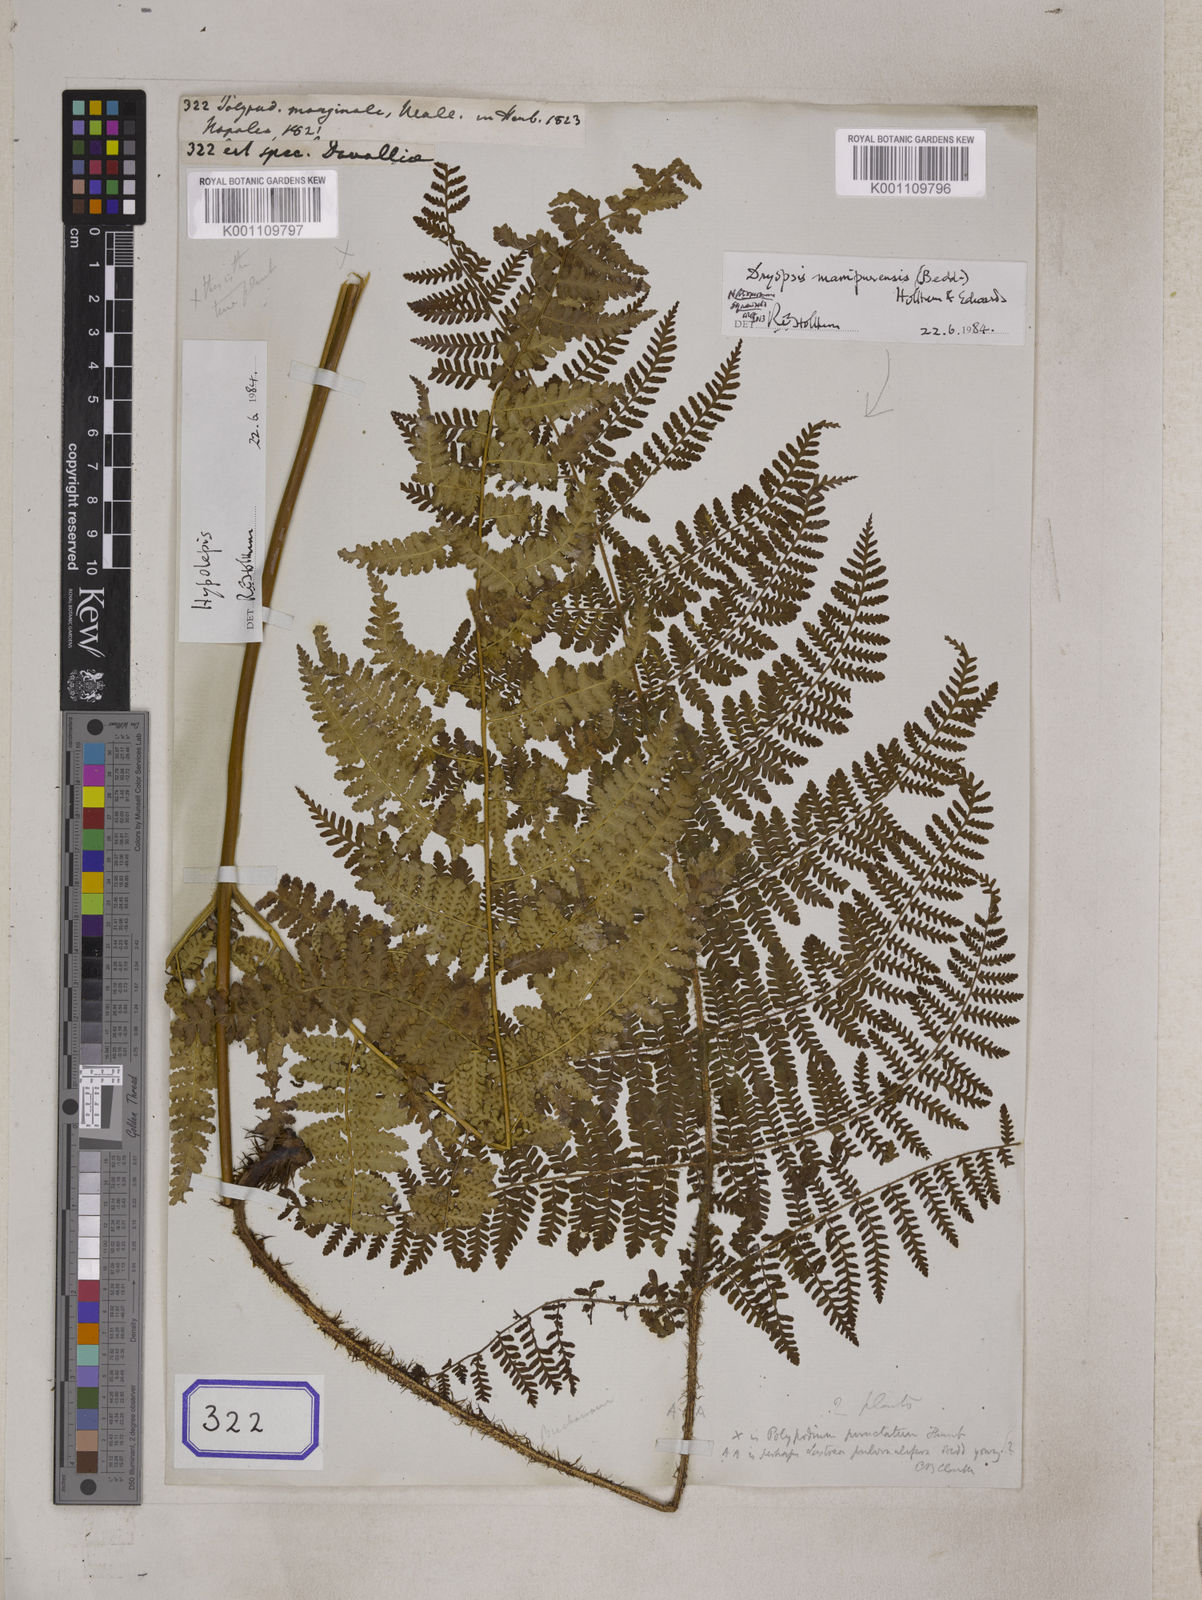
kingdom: Plantae
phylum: Tracheophyta
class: Polypodiopsida
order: Polypodiales
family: Davalliaceae
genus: Davallia
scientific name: Davallia
